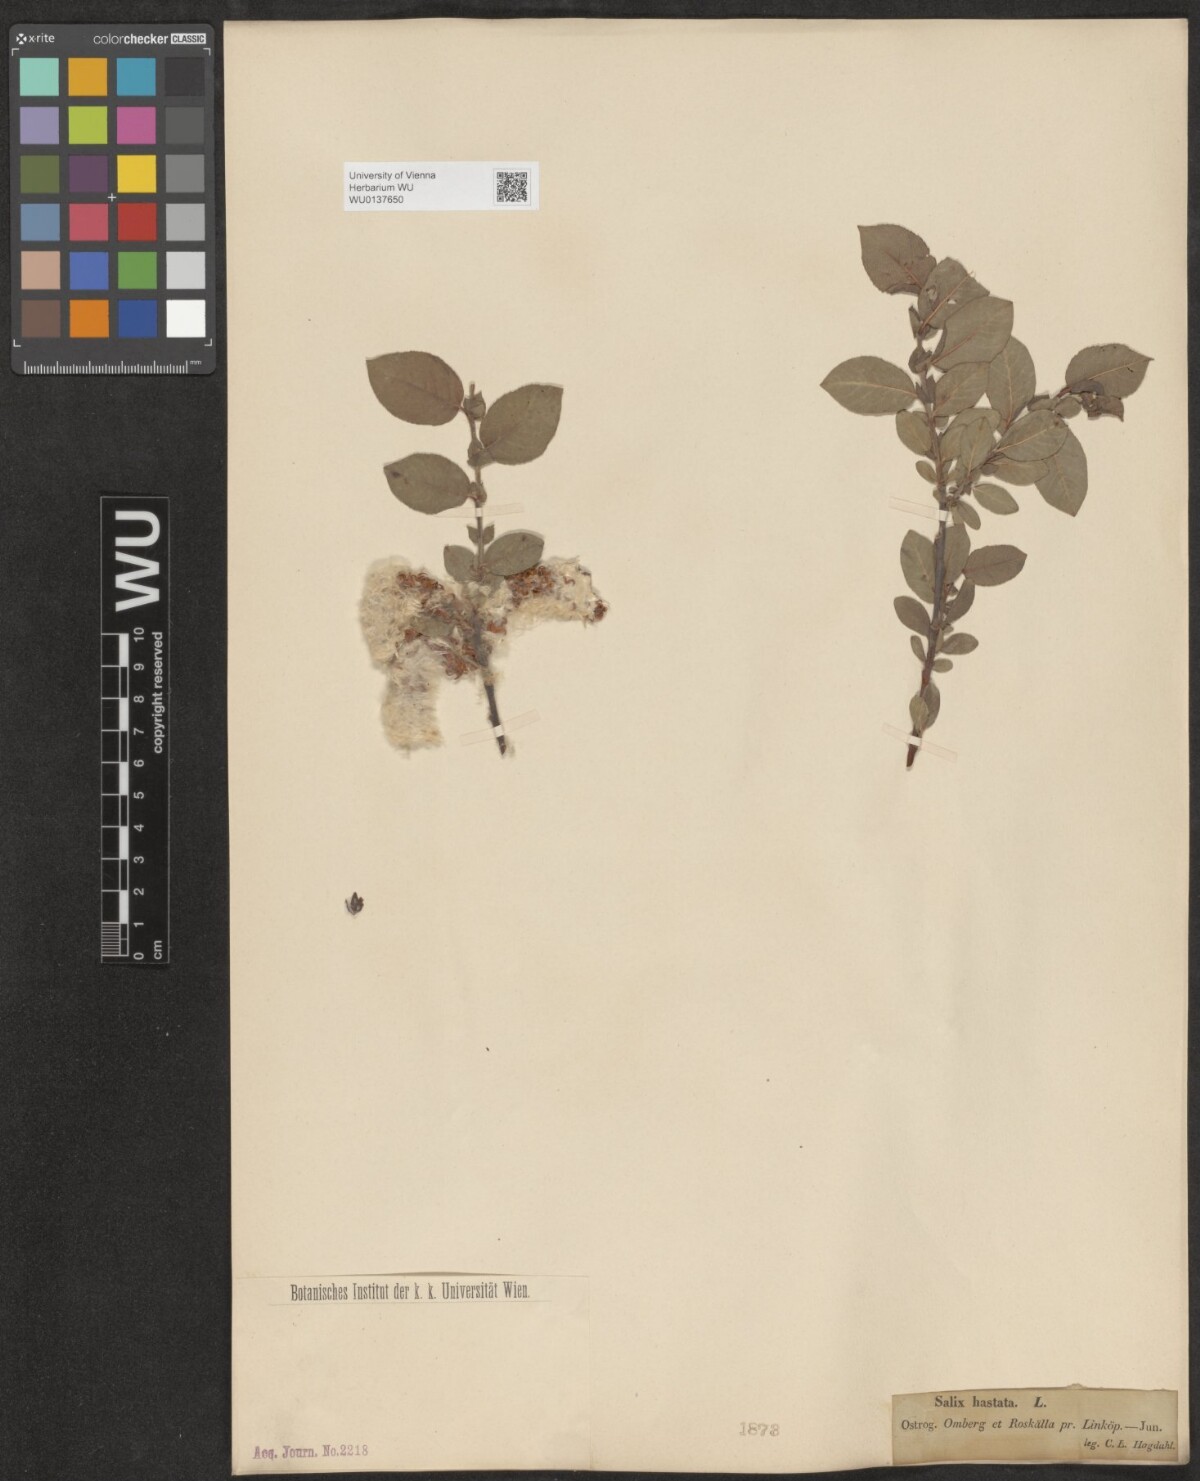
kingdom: Plantae
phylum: Tracheophyta
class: Magnoliopsida
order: Malpighiales
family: Salicaceae
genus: Salix
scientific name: Salix hastata
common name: Halberd willow
